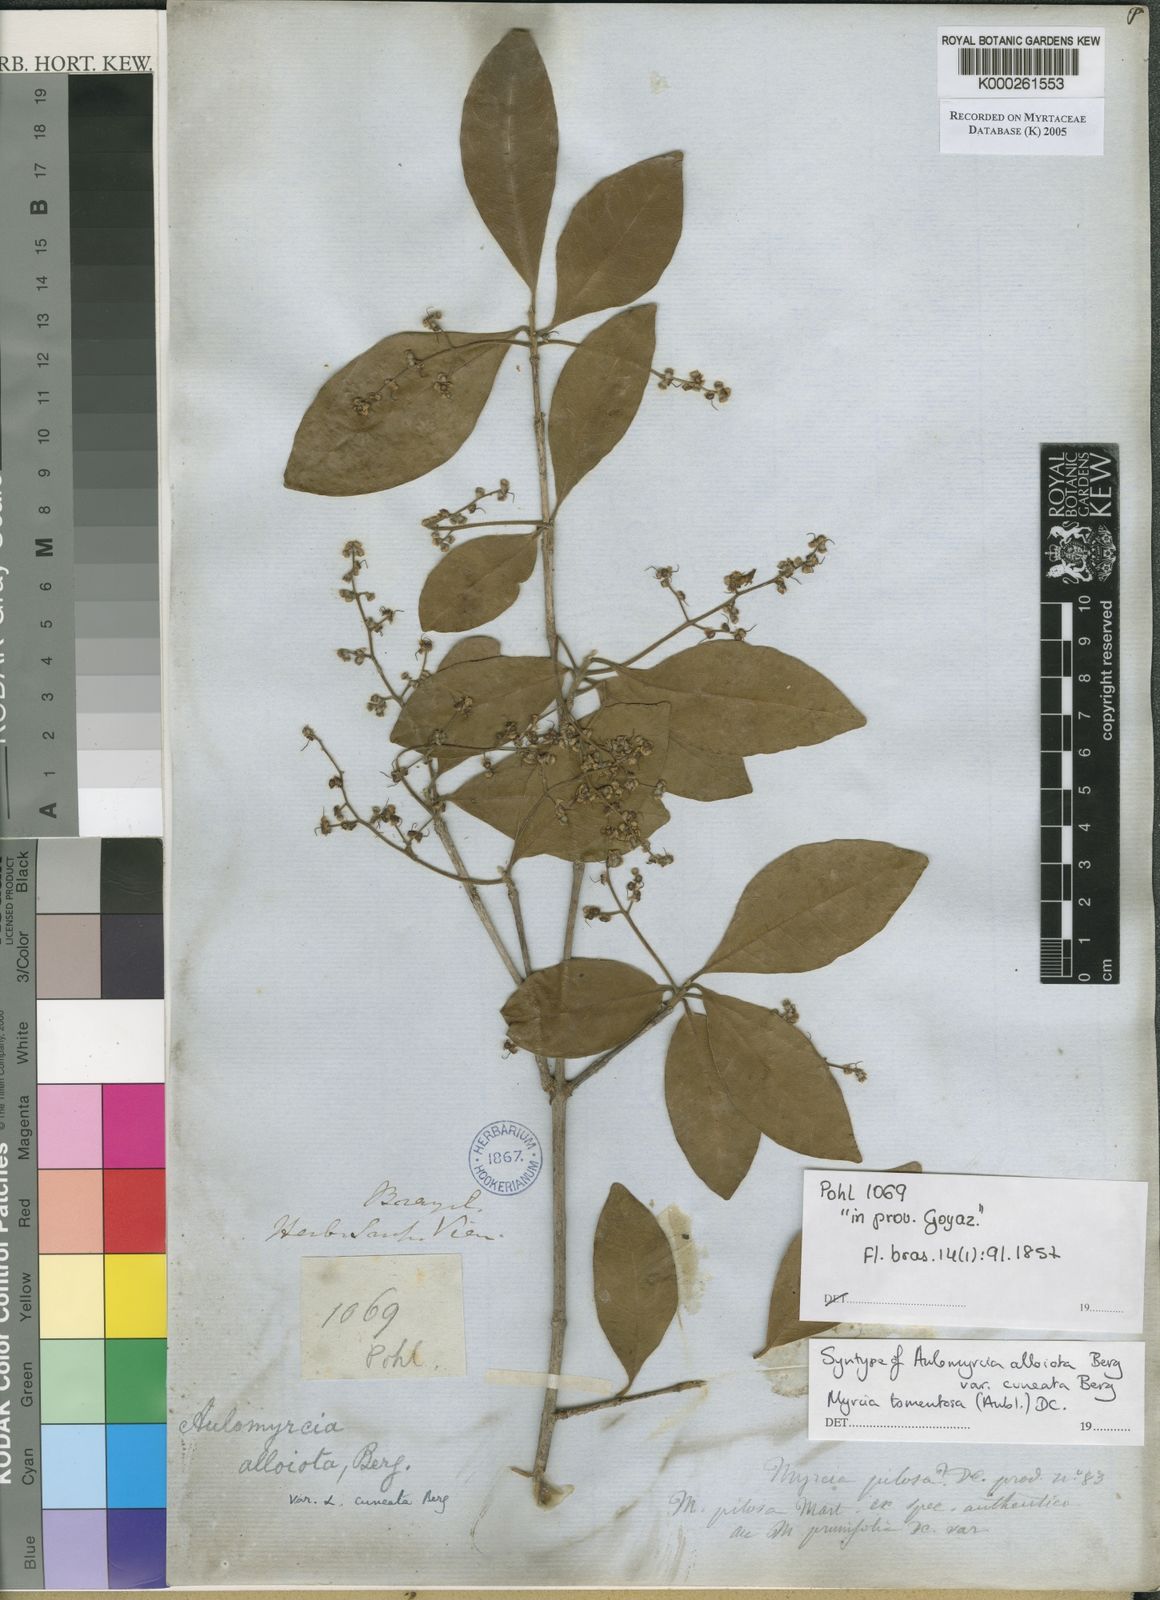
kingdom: Plantae
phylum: Tracheophyta
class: Magnoliopsida
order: Myrtales
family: Myrtaceae
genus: Myrcia
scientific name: Myrcia tomentosa
